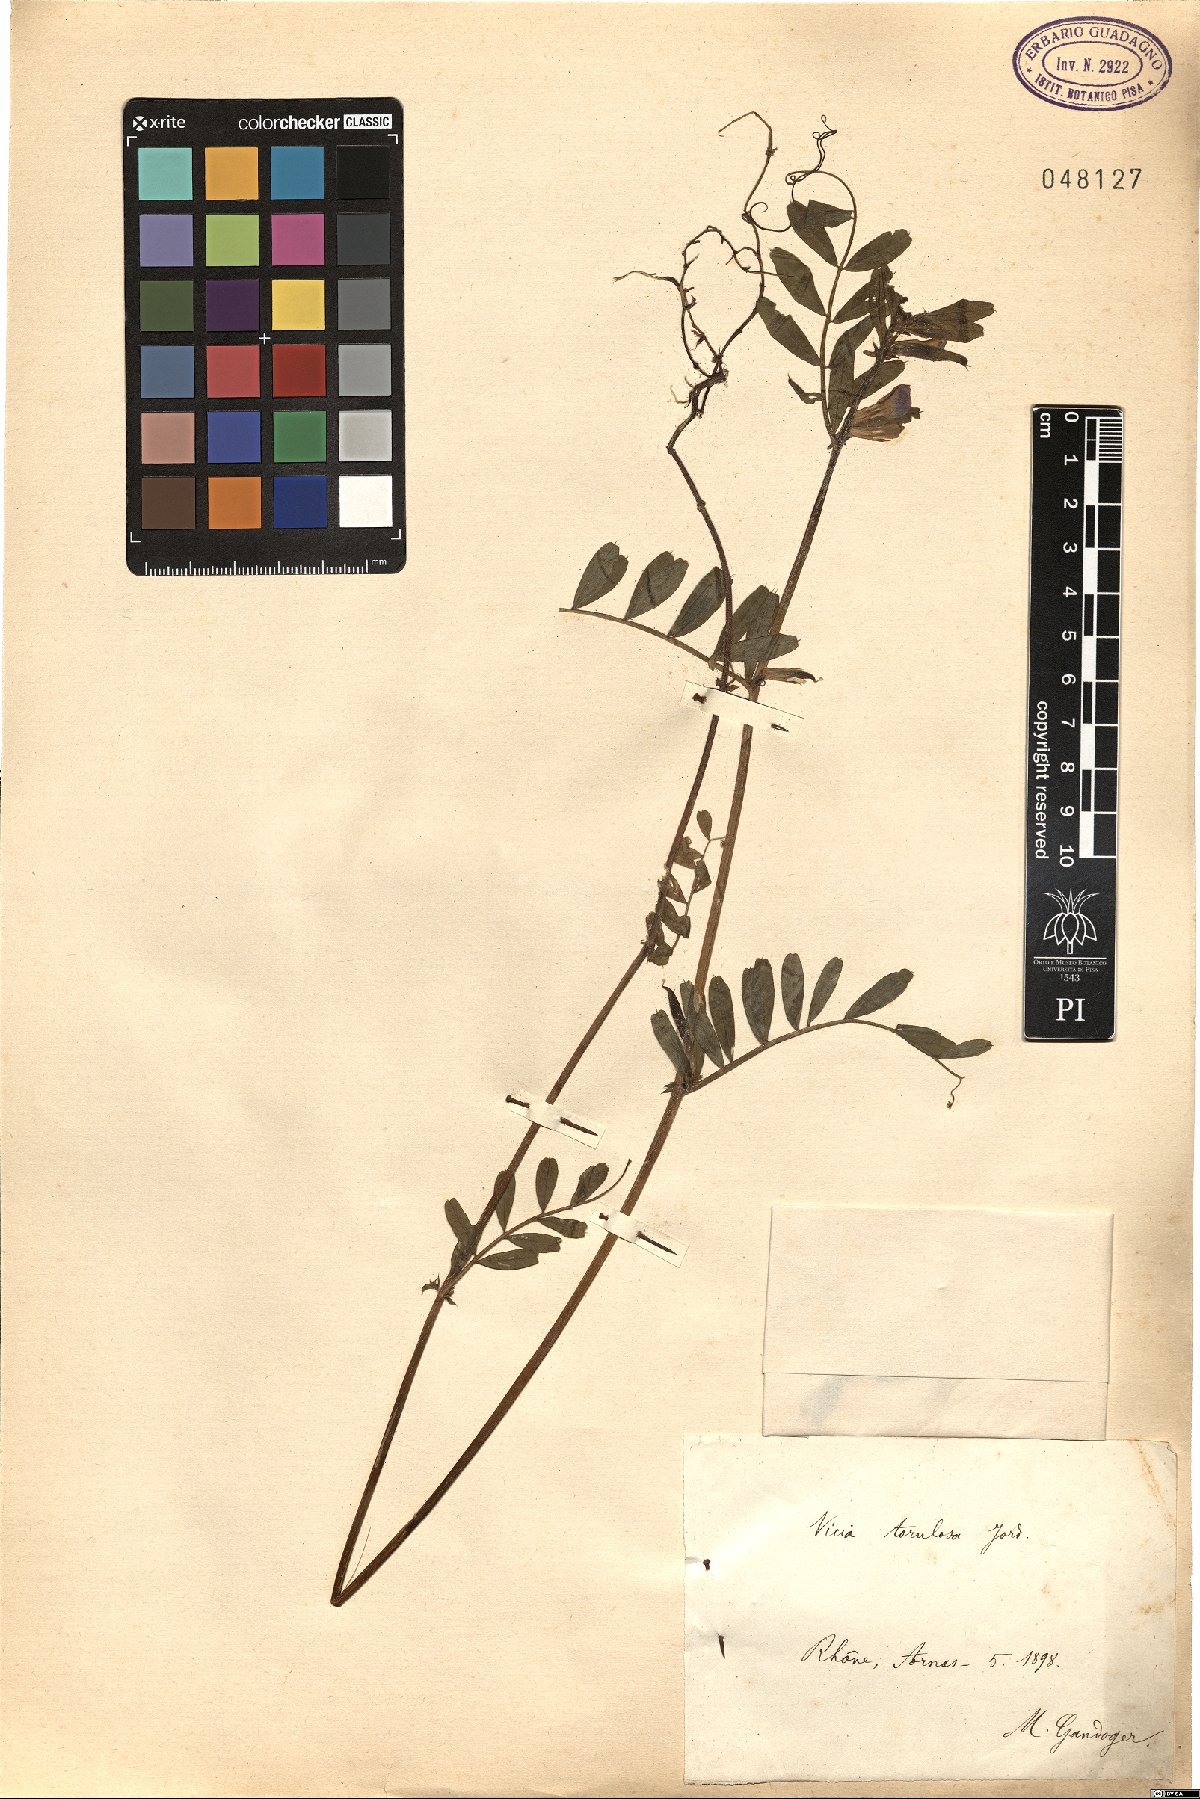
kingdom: Plantae
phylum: Tracheophyta
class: Magnoliopsida
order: Fabales
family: Fabaceae
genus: Vicia
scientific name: Vicia sativa
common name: Garden vetch
